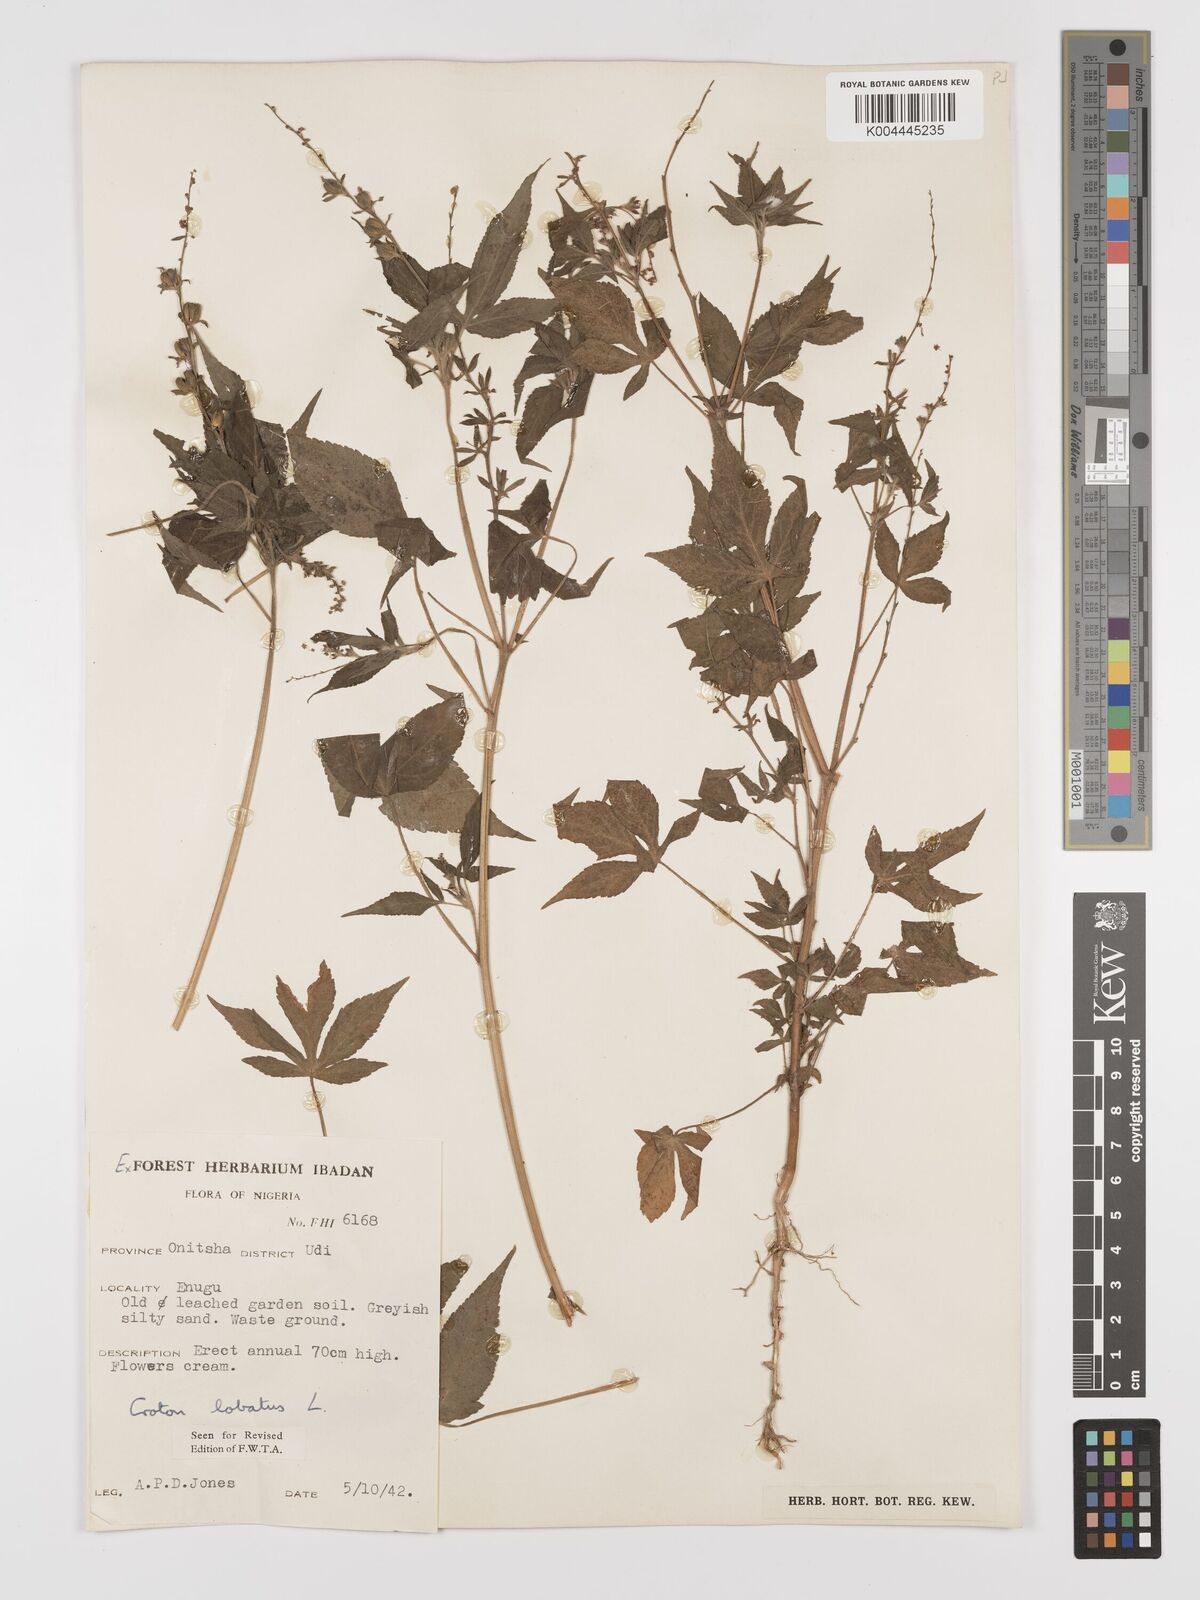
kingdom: Plantae
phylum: Tracheophyta
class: Magnoliopsida
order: Malpighiales
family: Euphorbiaceae
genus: Astraea
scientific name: Astraea lobata
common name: Lobed croton
